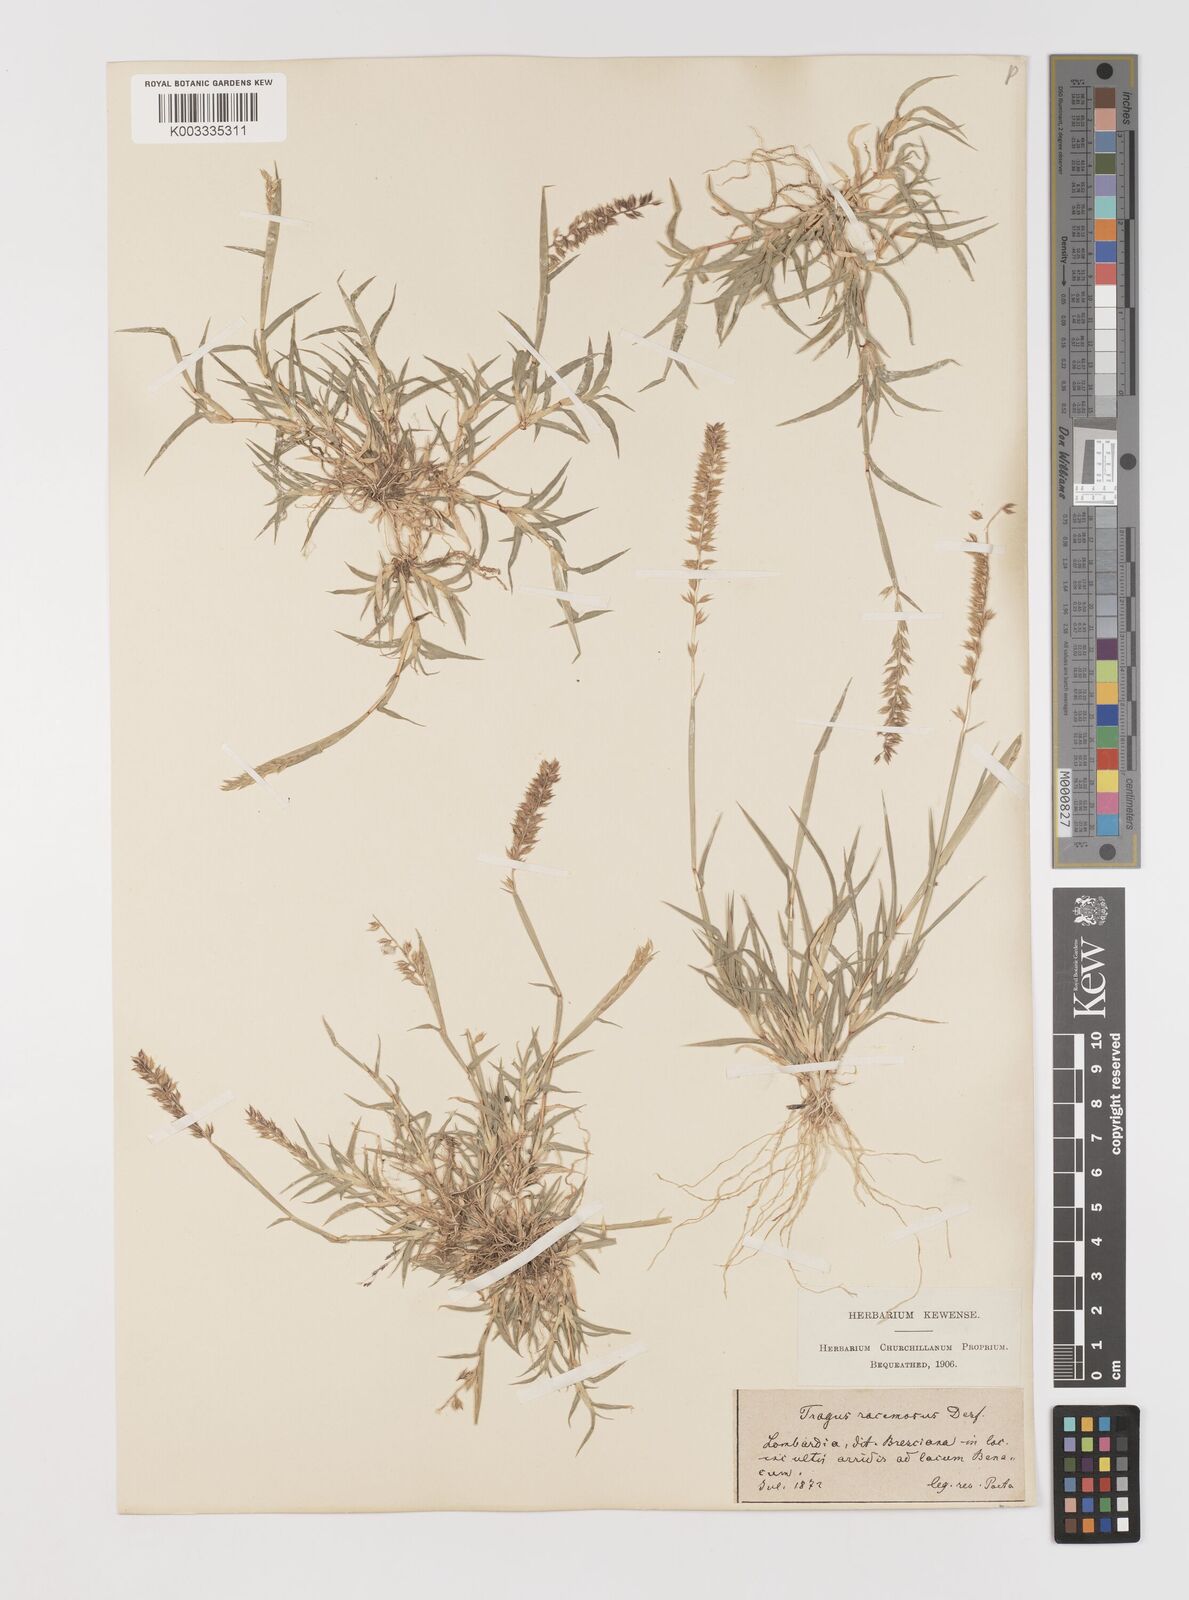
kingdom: Plantae
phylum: Tracheophyta
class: Liliopsida
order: Poales
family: Poaceae
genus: Tragus
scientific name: Tragus racemosus
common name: European bur-grass
